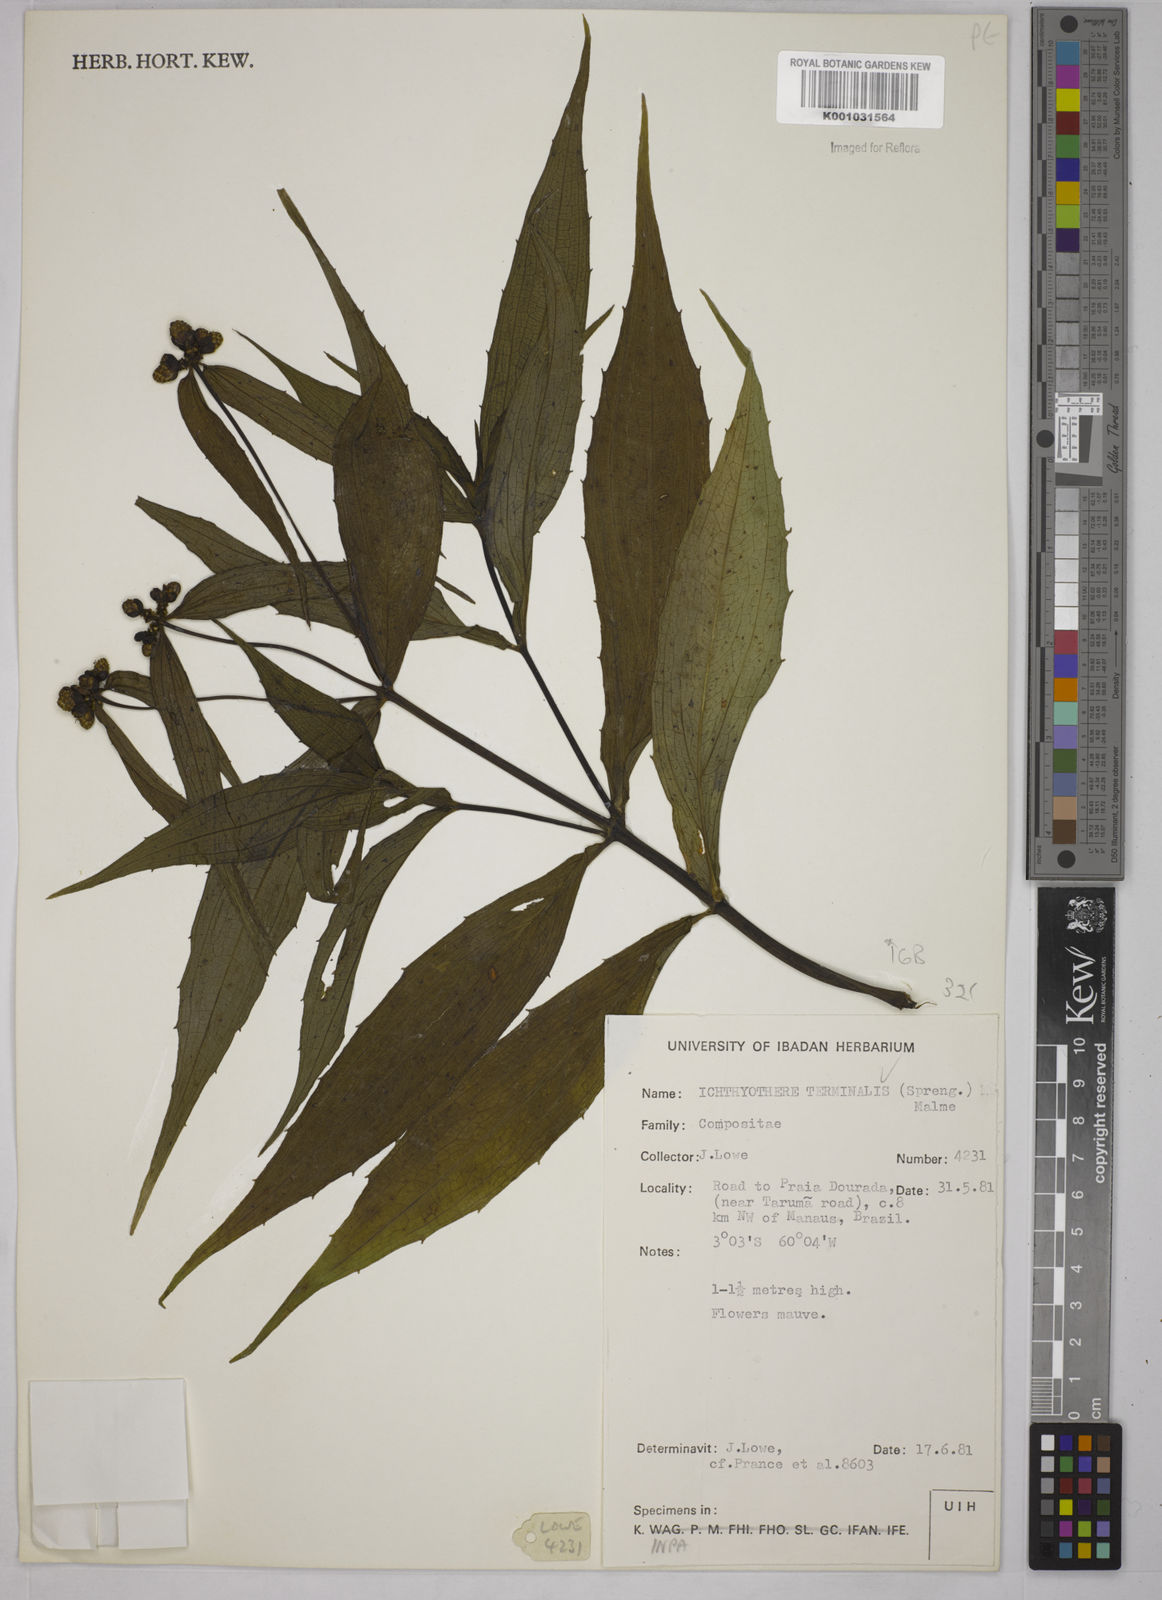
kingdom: Plantae
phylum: Tracheophyta
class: Magnoliopsida
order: Asterales
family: Asteraceae
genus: Ichthyothere
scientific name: Ichthyothere cunabi
